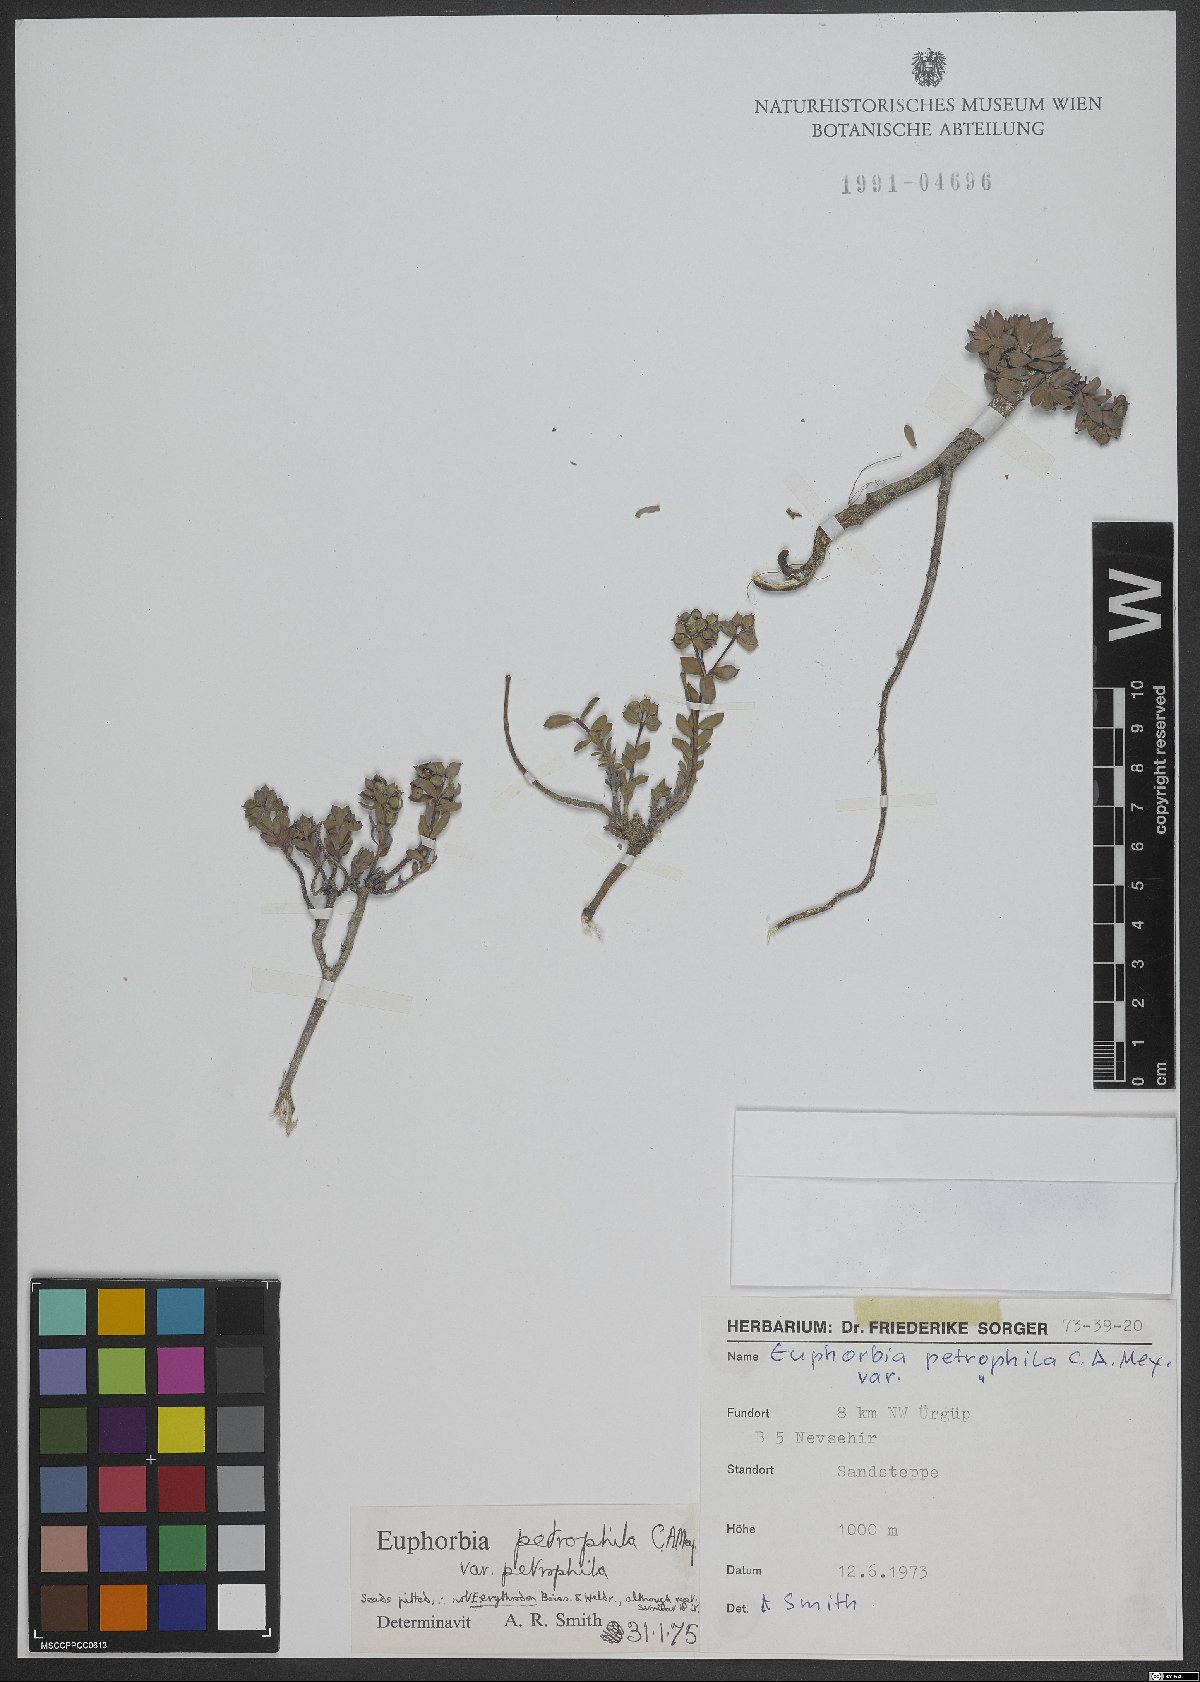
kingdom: Plantae
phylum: Tracheophyta
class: Magnoliopsida
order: Malpighiales
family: Euphorbiaceae
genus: Euphorbia
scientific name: Euphorbia petrophila
